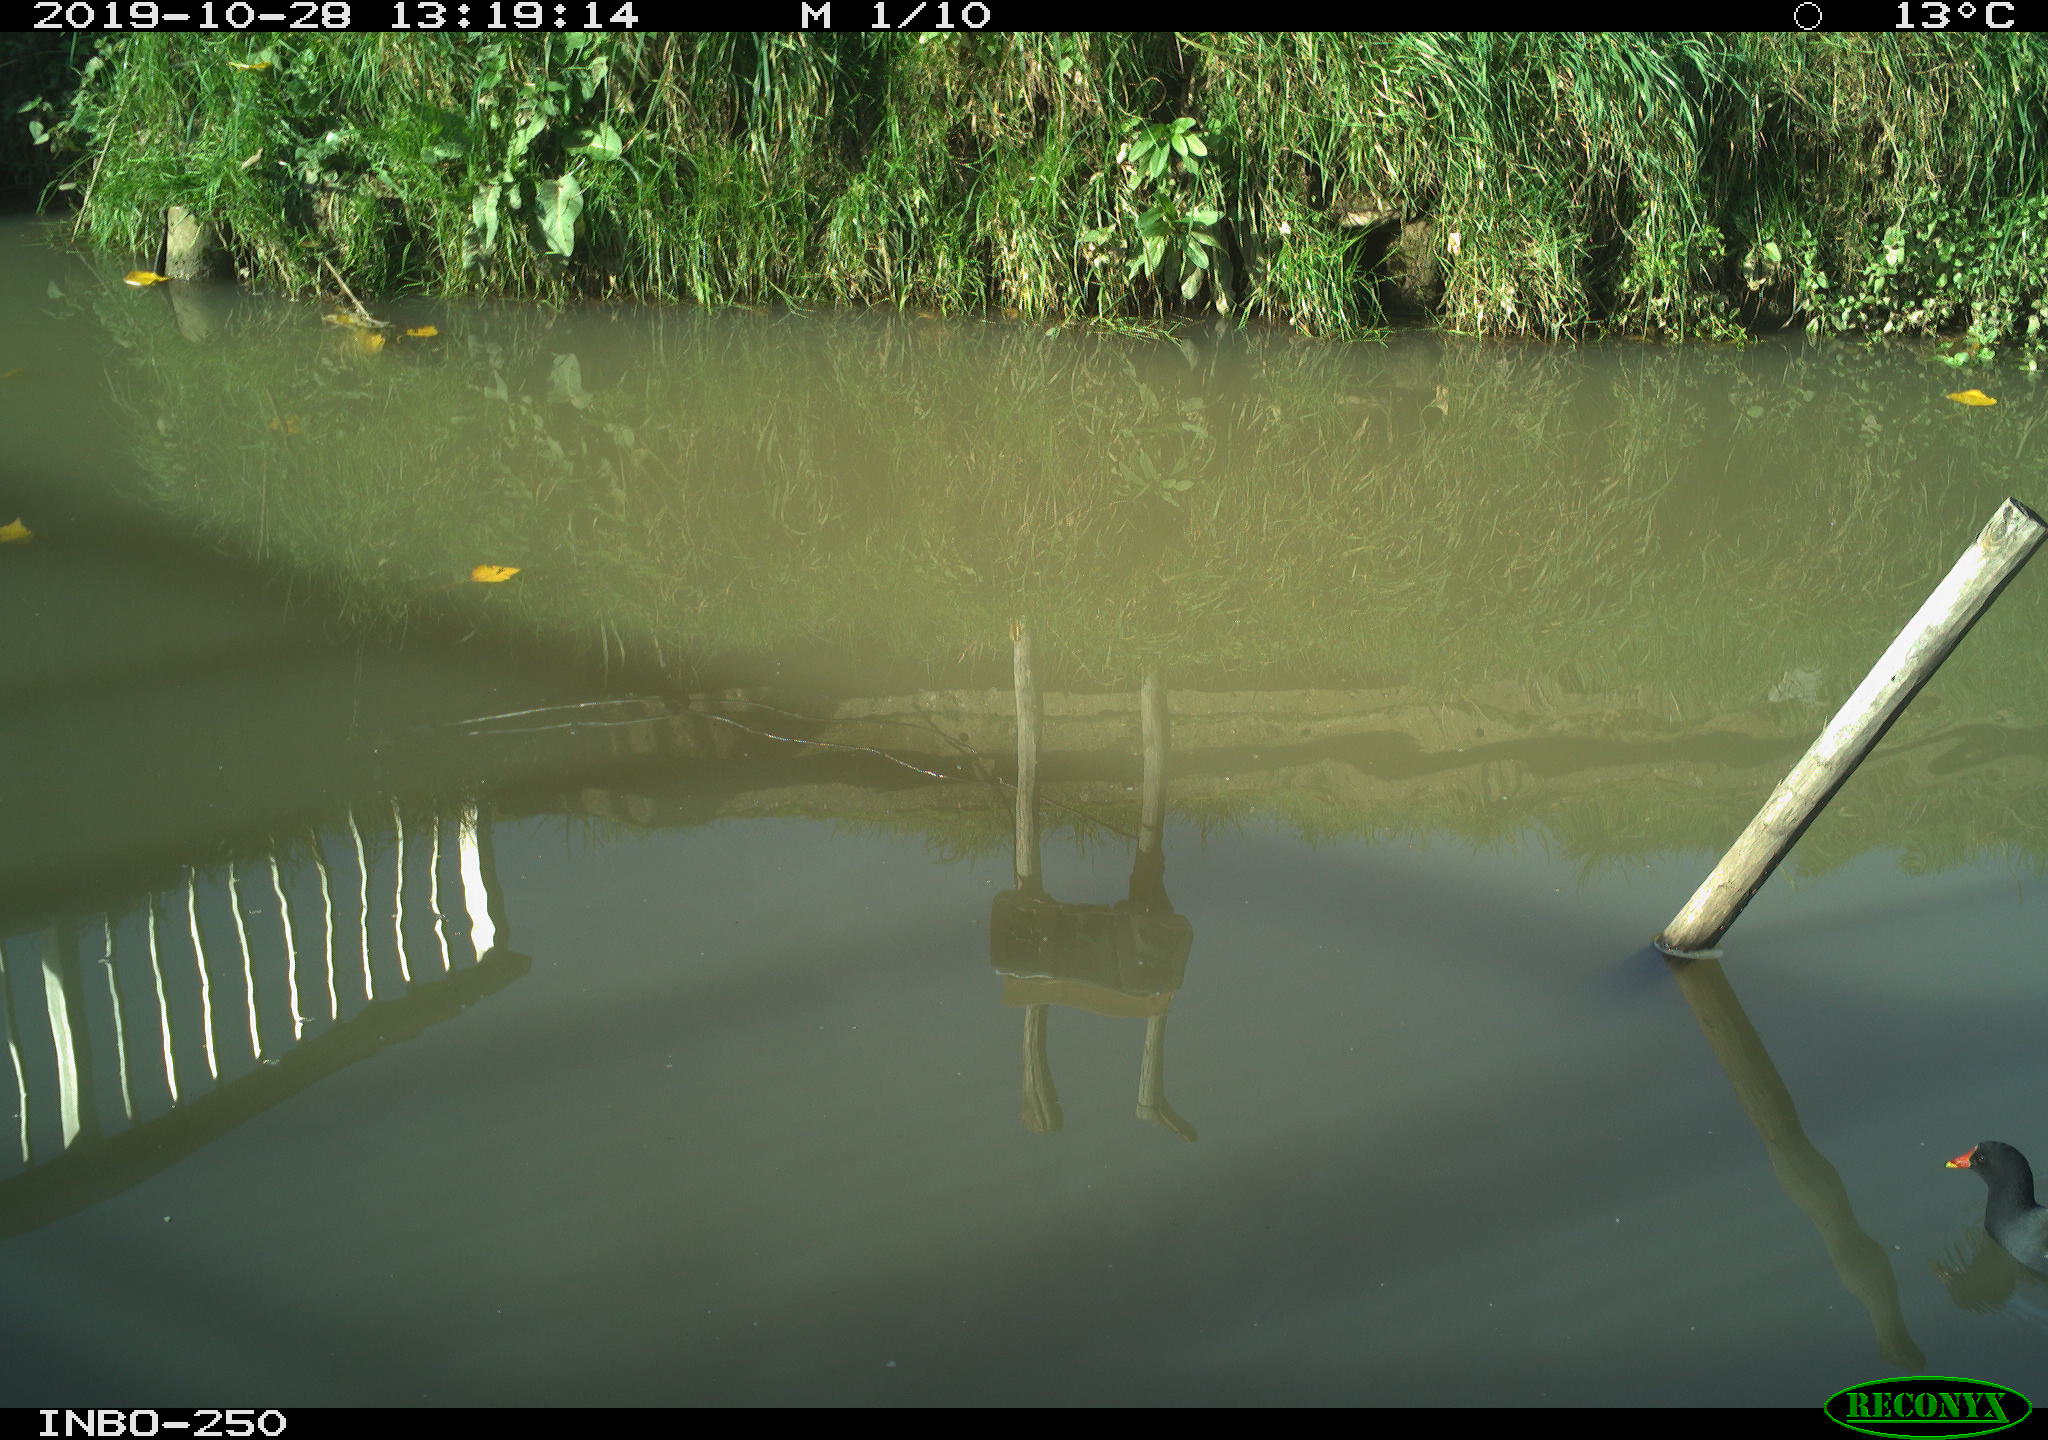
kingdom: Animalia
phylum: Chordata
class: Aves
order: Gruiformes
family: Rallidae
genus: Gallinula
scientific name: Gallinula chloropus
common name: Common moorhen
